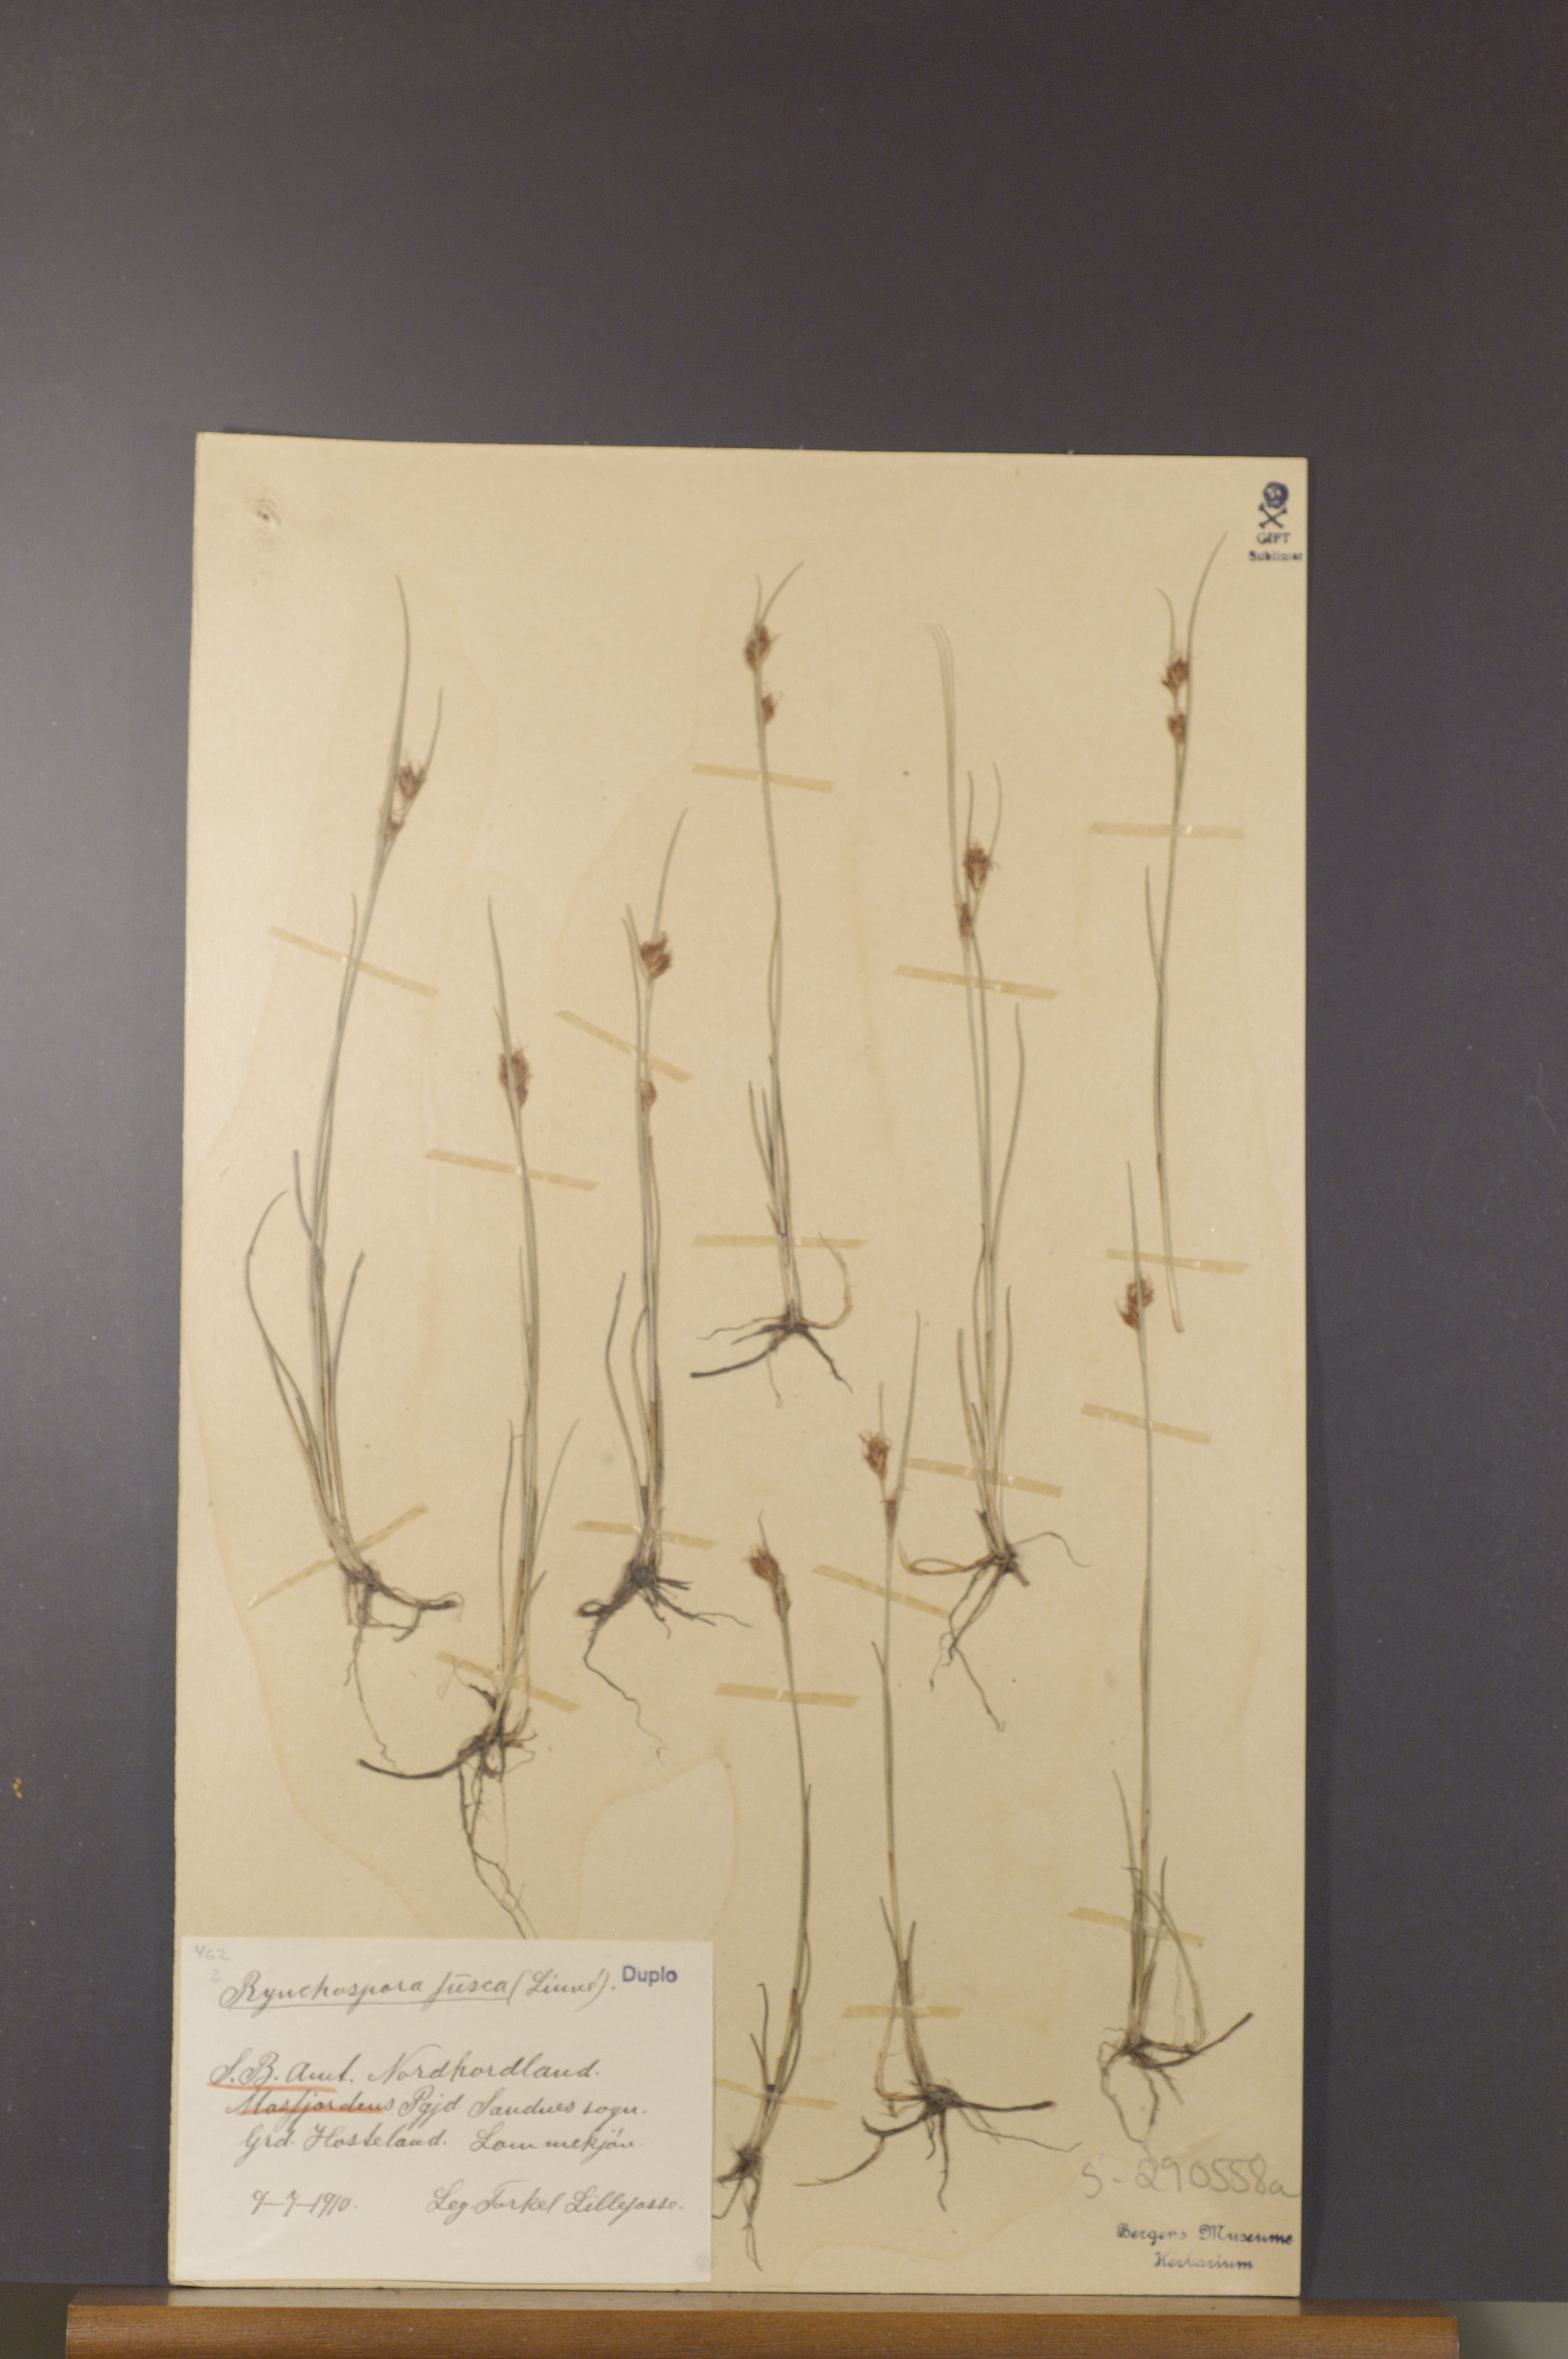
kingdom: Plantae
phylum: Tracheophyta
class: Liliopsida
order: Poales
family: Cyperaceae
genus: Rhynchospora
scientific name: Rhynchospora fusca
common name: Brown beak-sedge
